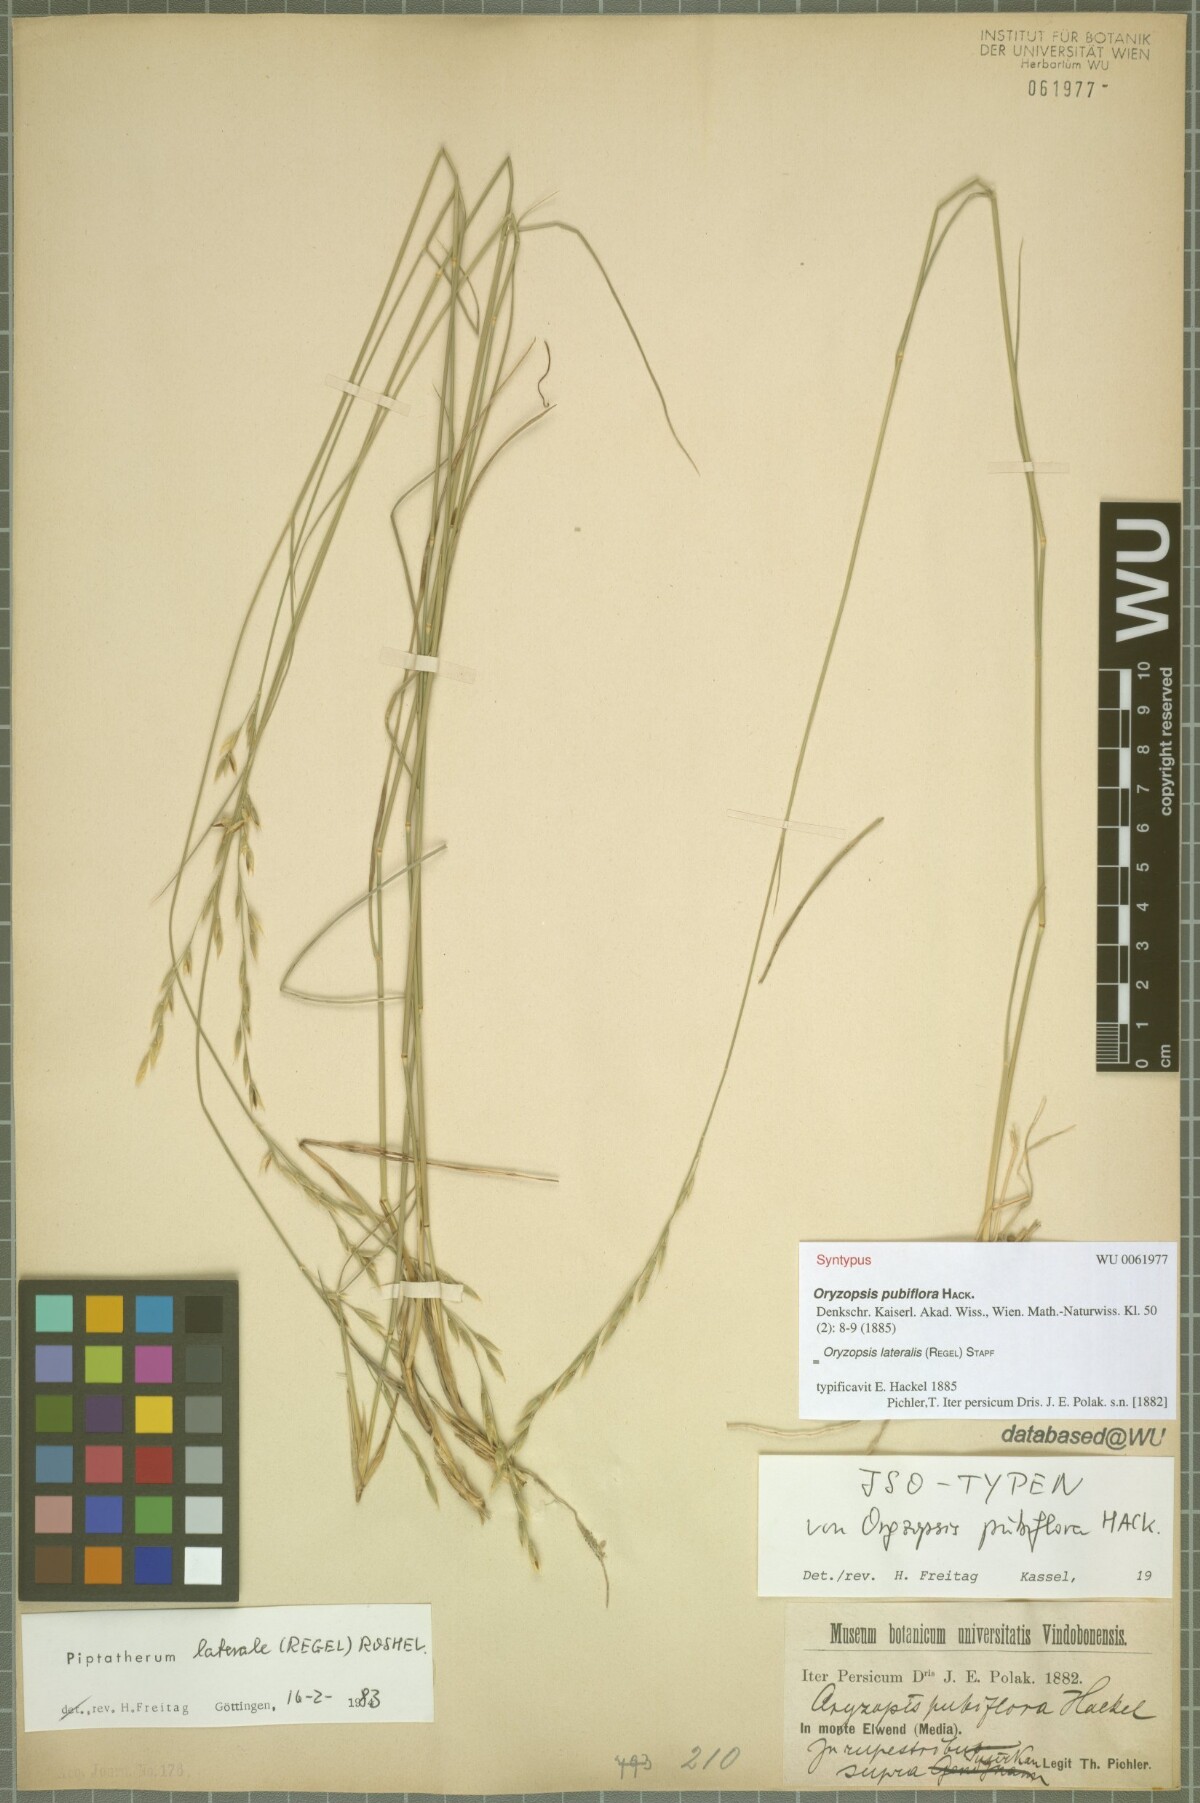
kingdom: Plantae
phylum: Tracheophyta
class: Liliopsida
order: Poales
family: Poaceae
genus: Piptatherum
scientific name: Piptatherum laterale
